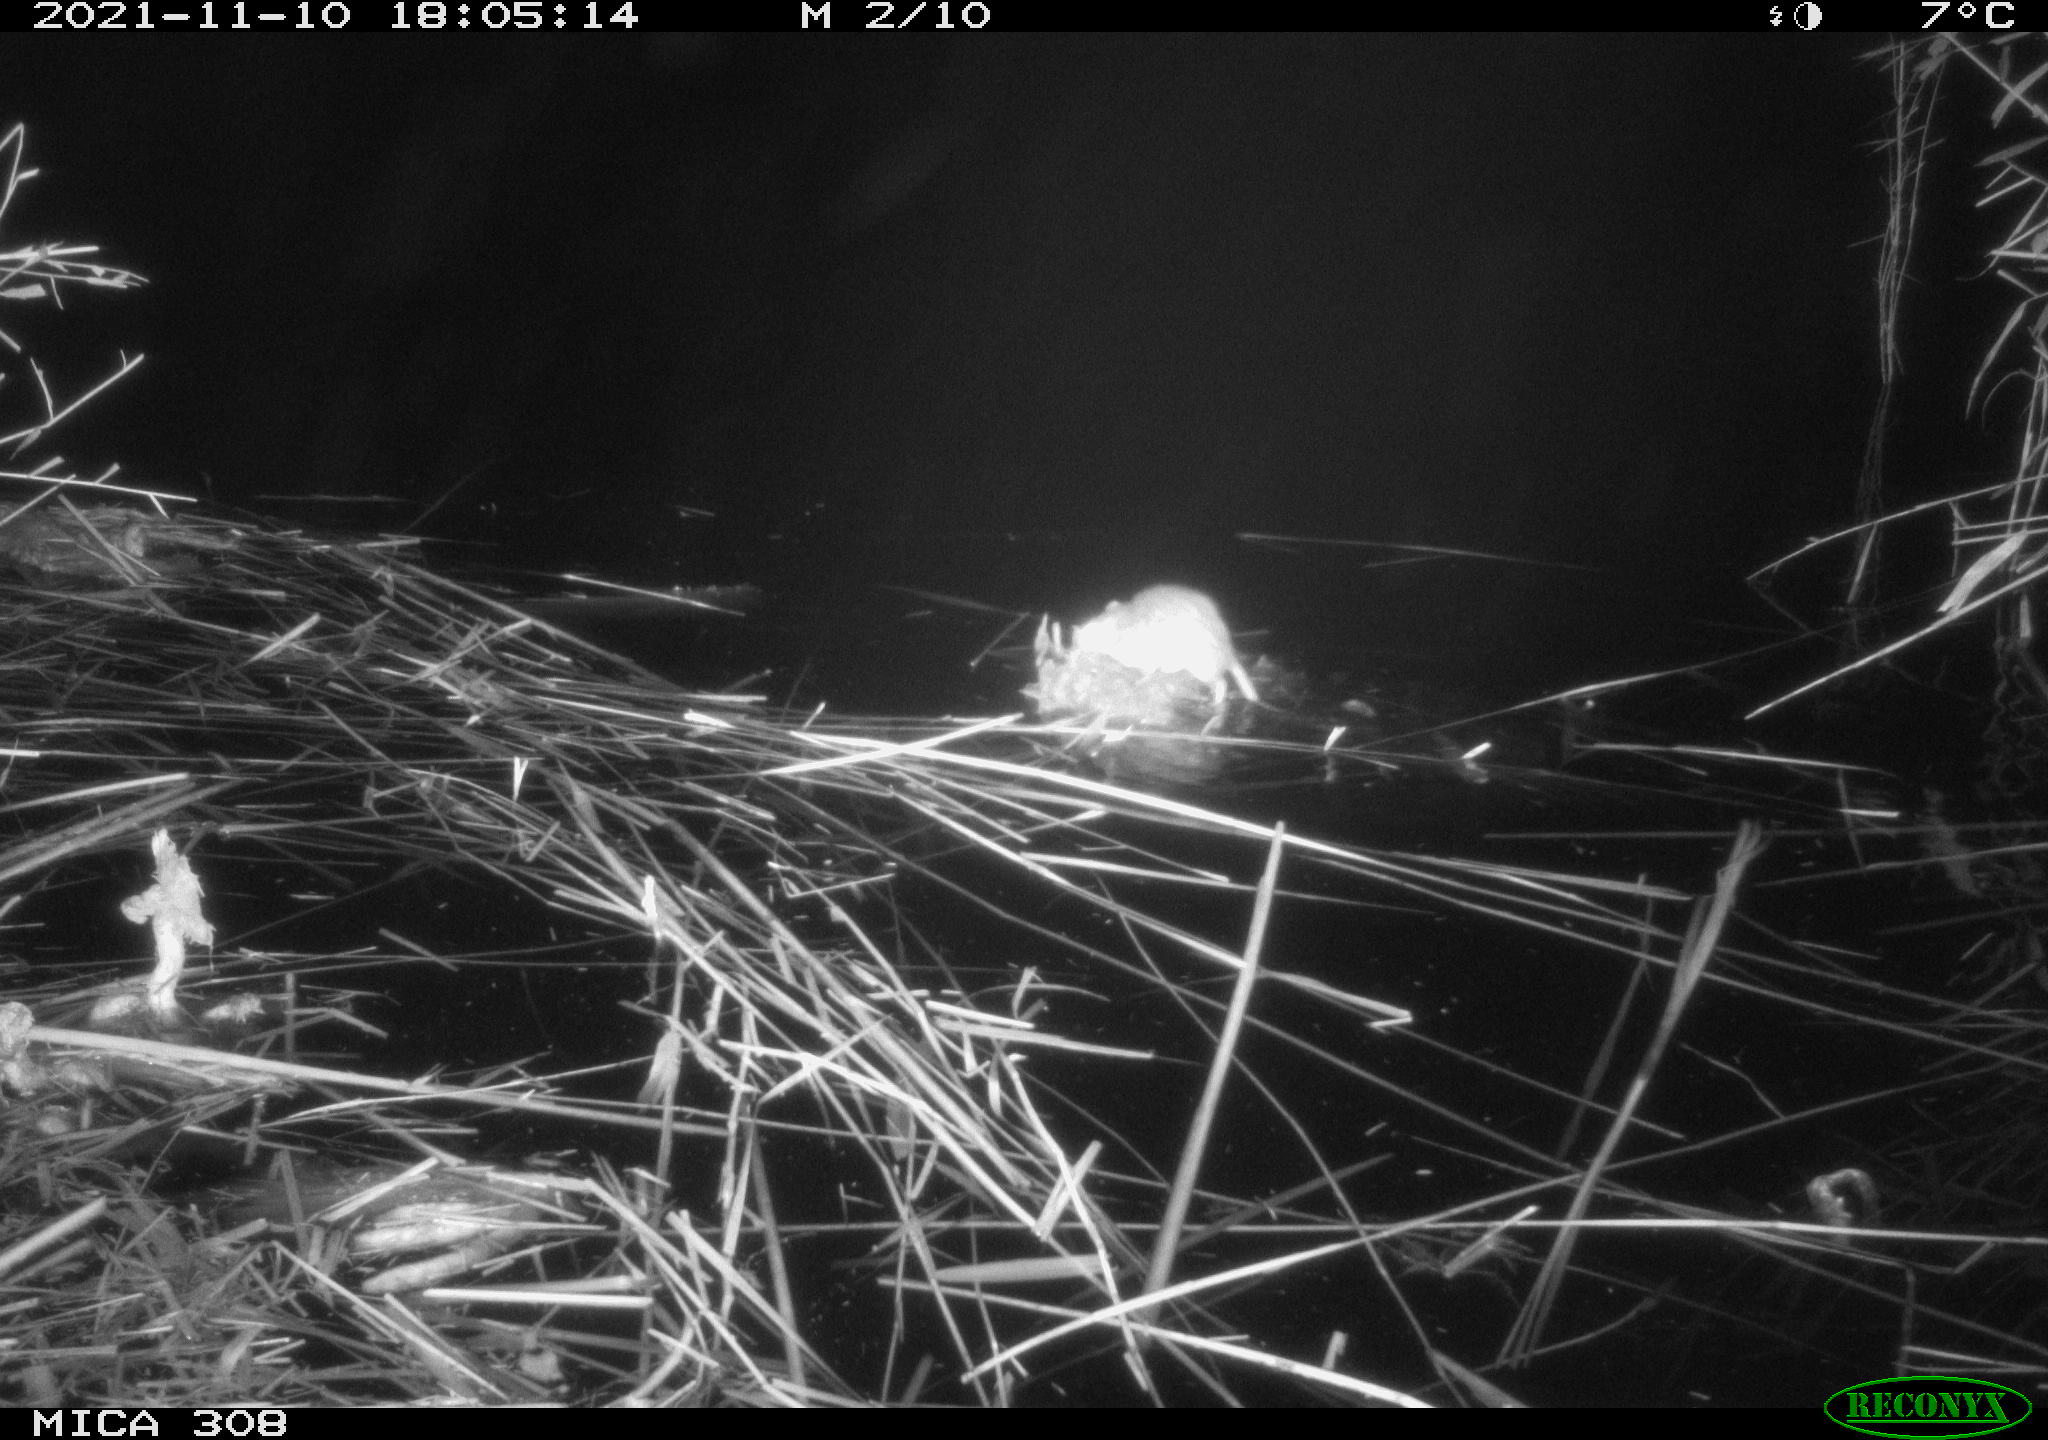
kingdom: Animalia
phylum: Chordata
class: Mammalia
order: Rodentia
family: Muridae
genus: Rattus
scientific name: Rattus norvegicus
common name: Brown rat
